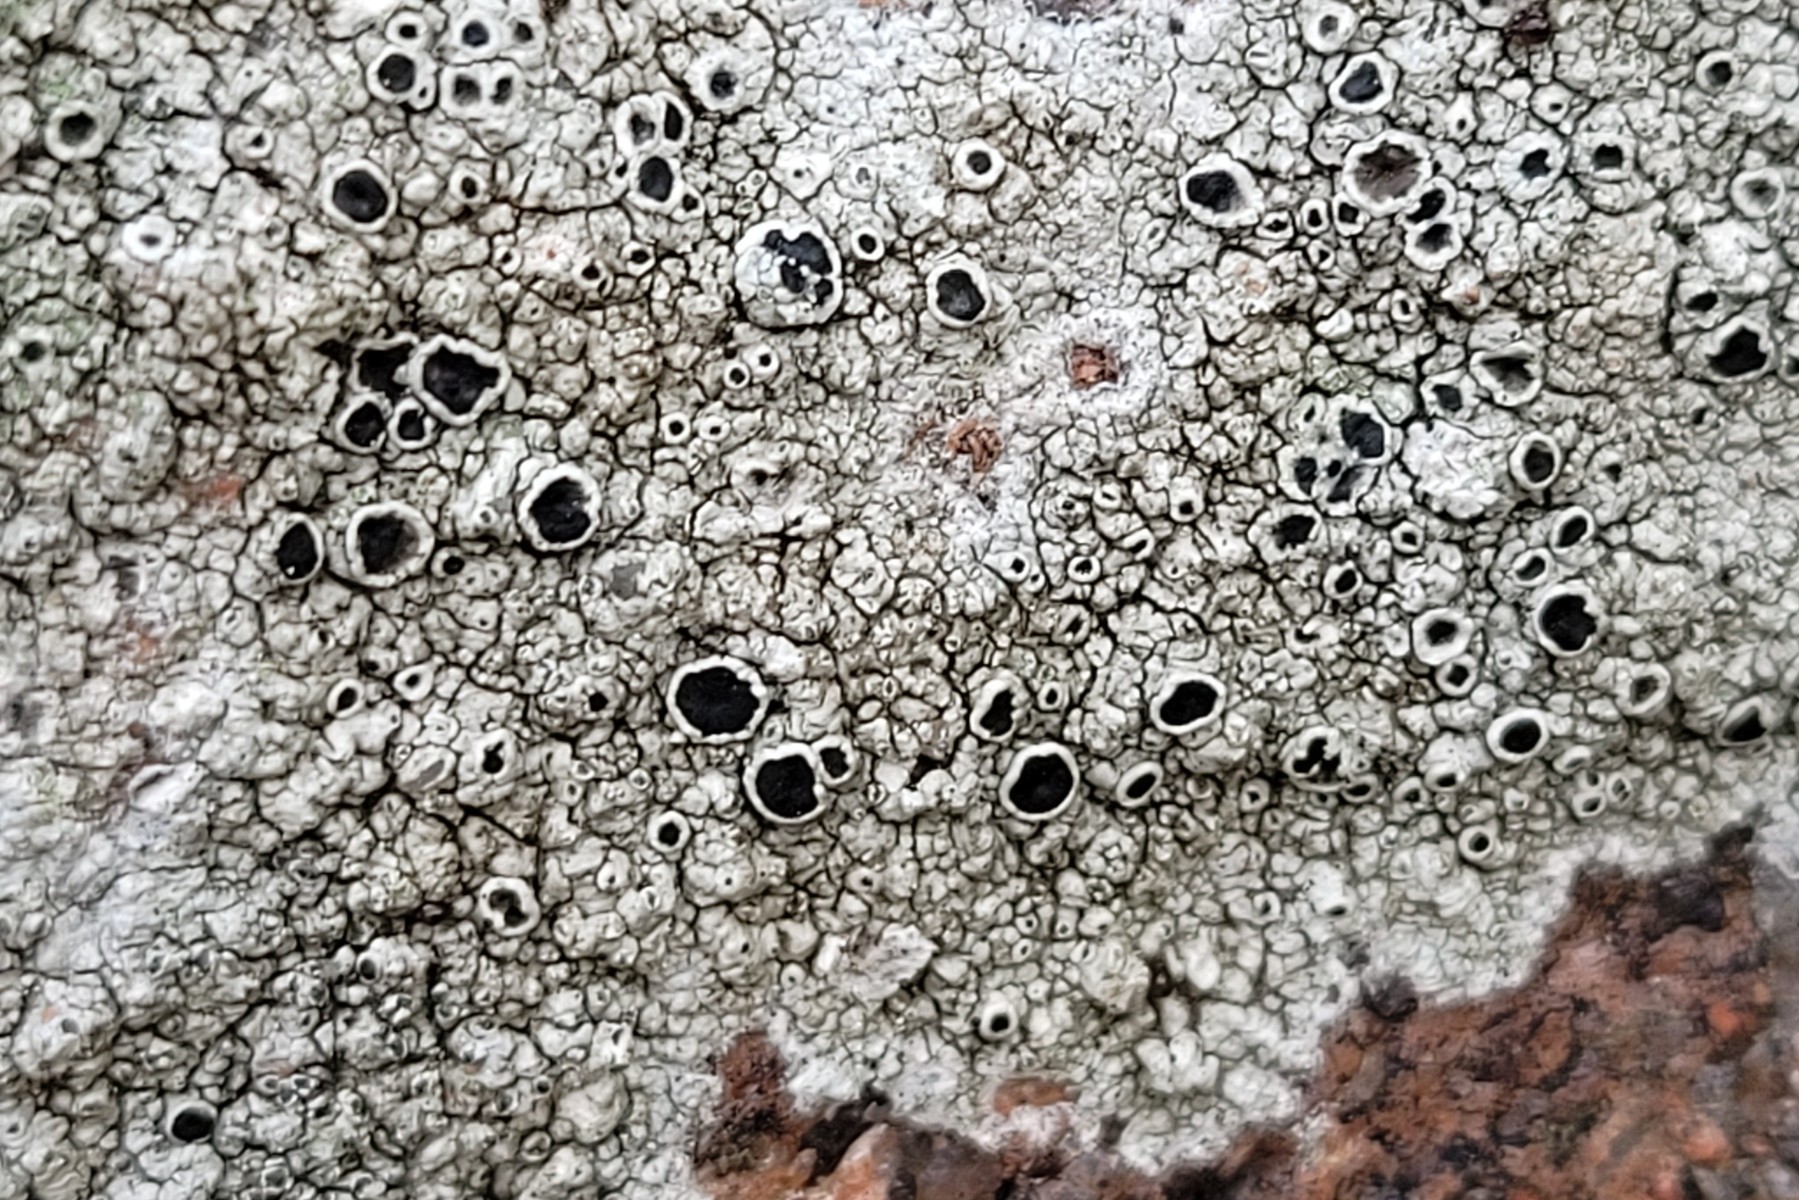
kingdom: Fungi
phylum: Ascomycota
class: Lecanoromycetes
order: Lecanorales
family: Tephromelataceae
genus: Tephromela
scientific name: Tephromela atra
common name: sortfrugtet kantskivelav
